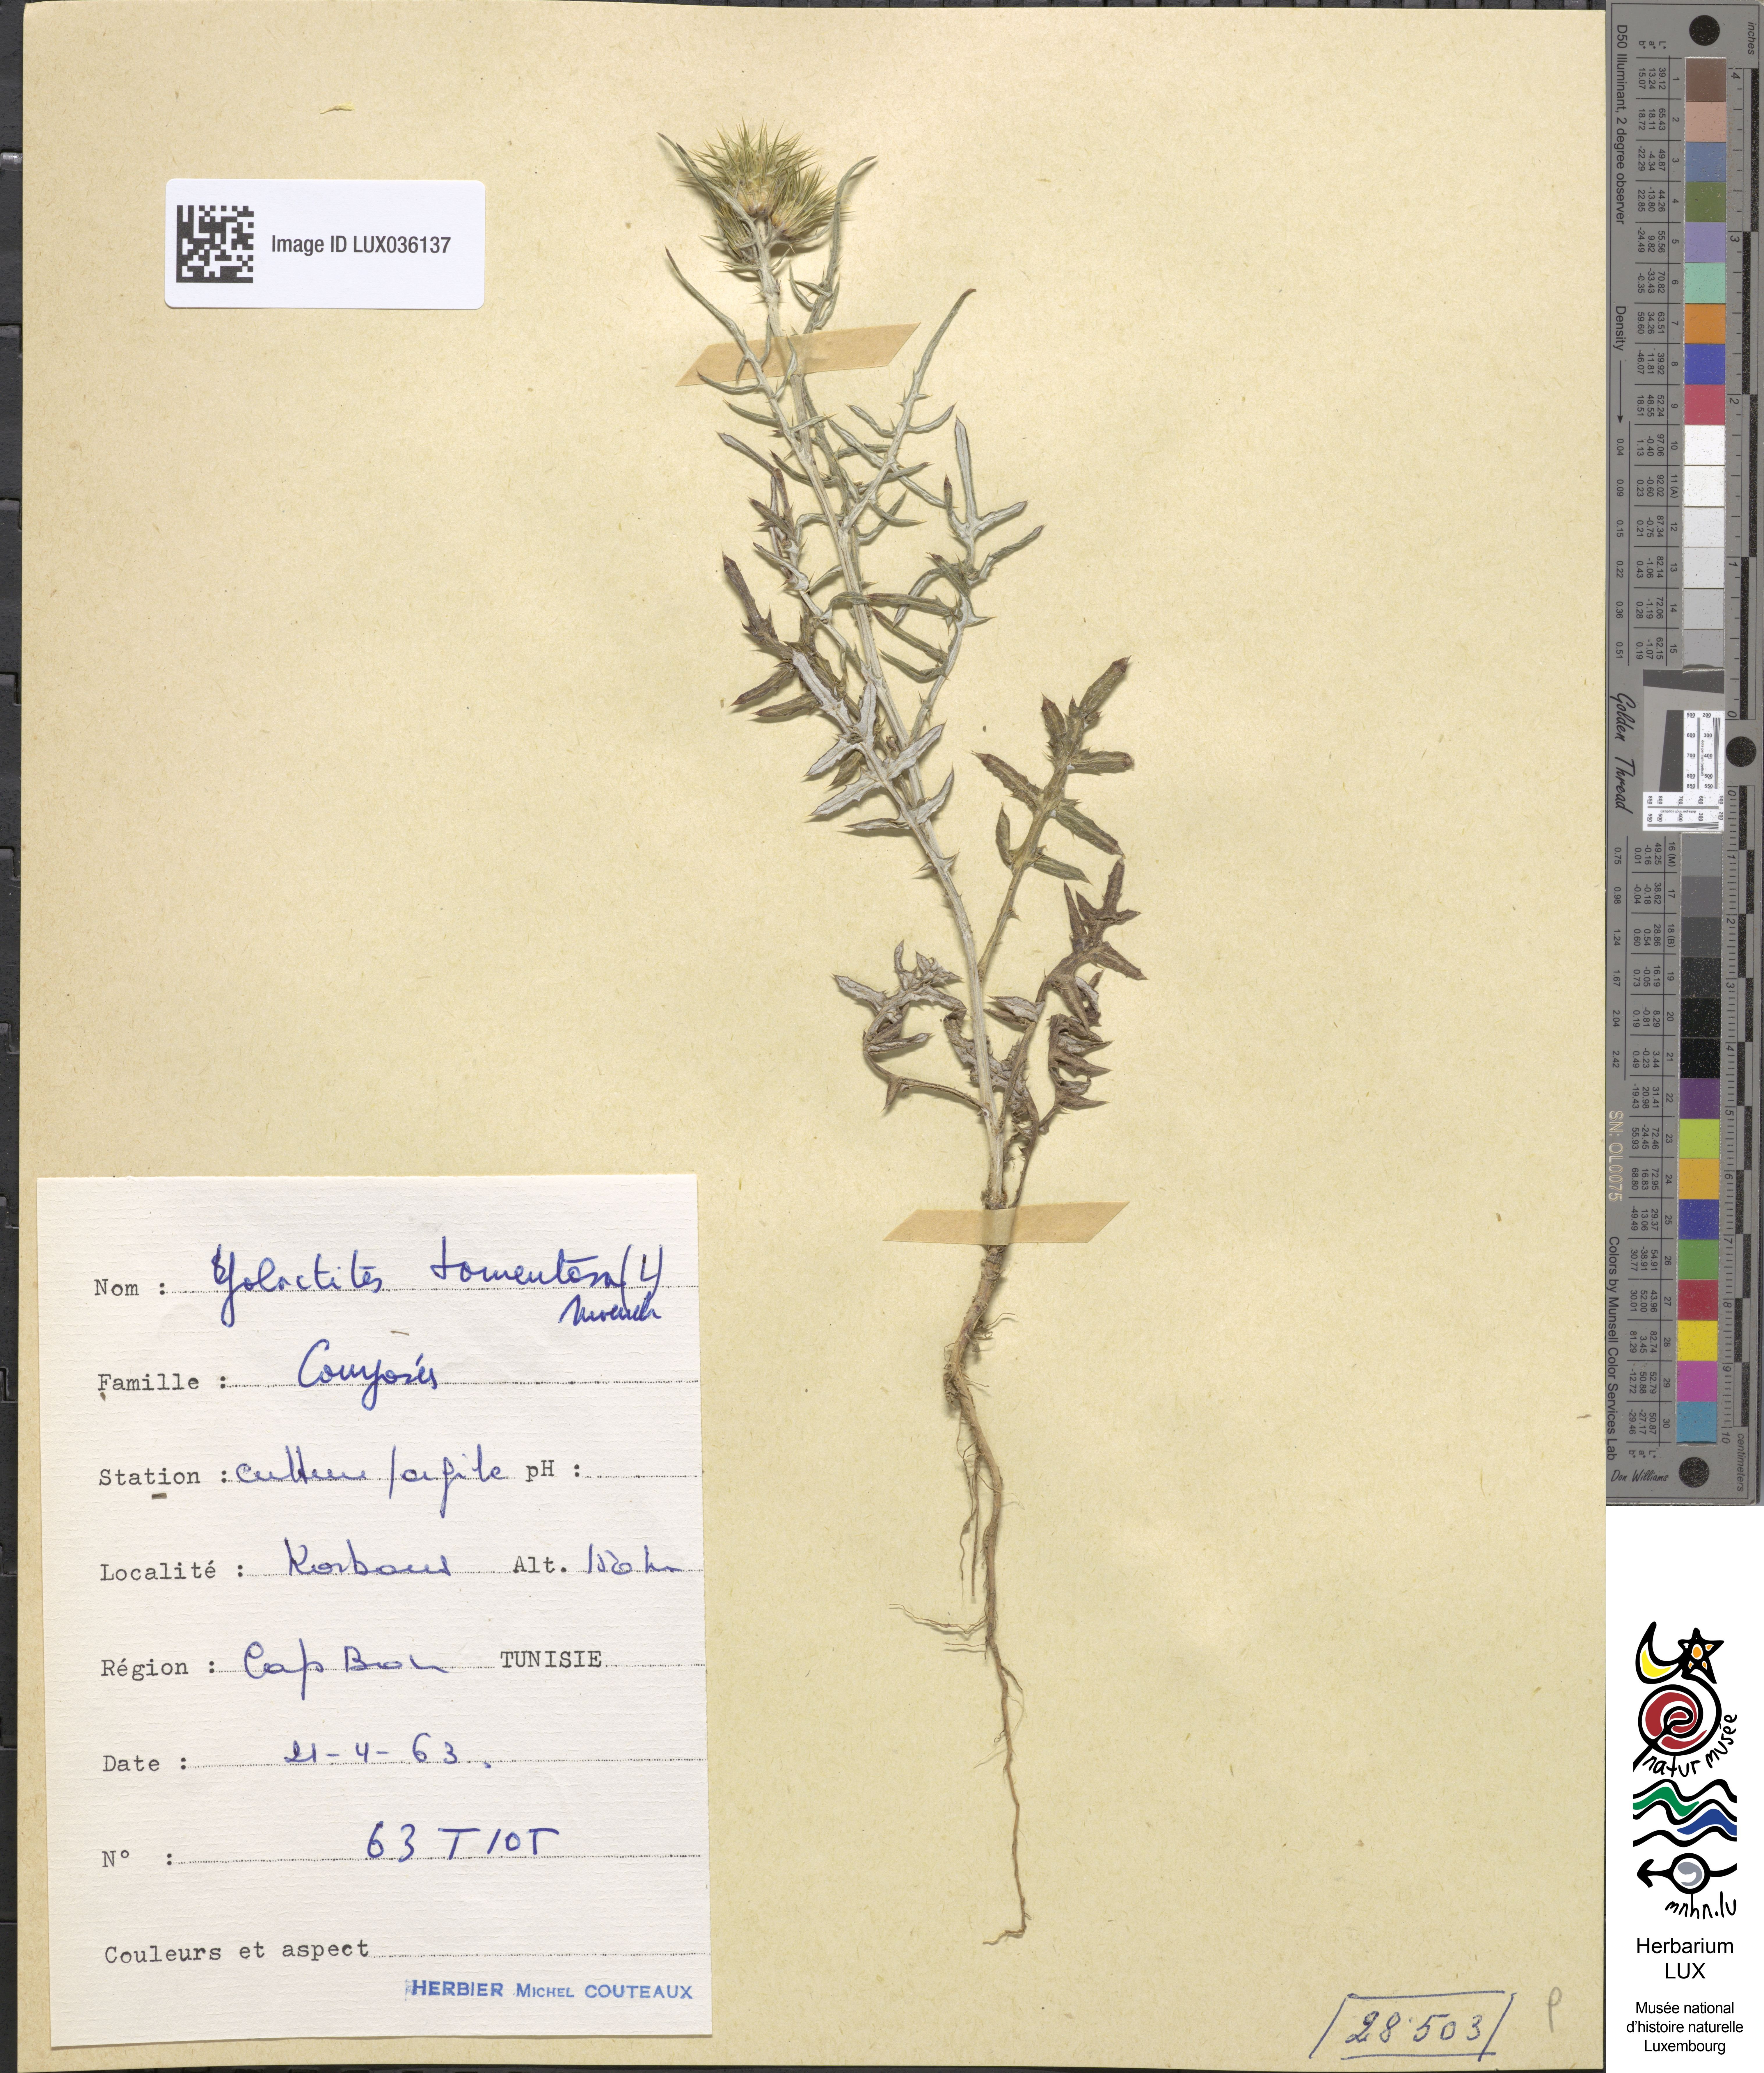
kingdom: Plantae
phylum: Tracheophyta
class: Magnoliopsida
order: Asterales
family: Asteraceae
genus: Galactites
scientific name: Galactites tomentosa
